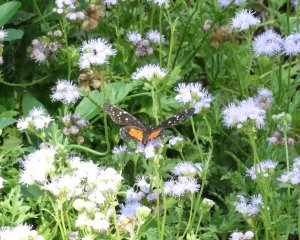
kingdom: Animalia
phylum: Arthropoda
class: Insecta
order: Lepidoptera
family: Nymphalidae
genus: Chlosyne
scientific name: Chlosyne janais
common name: Crimson Patch
